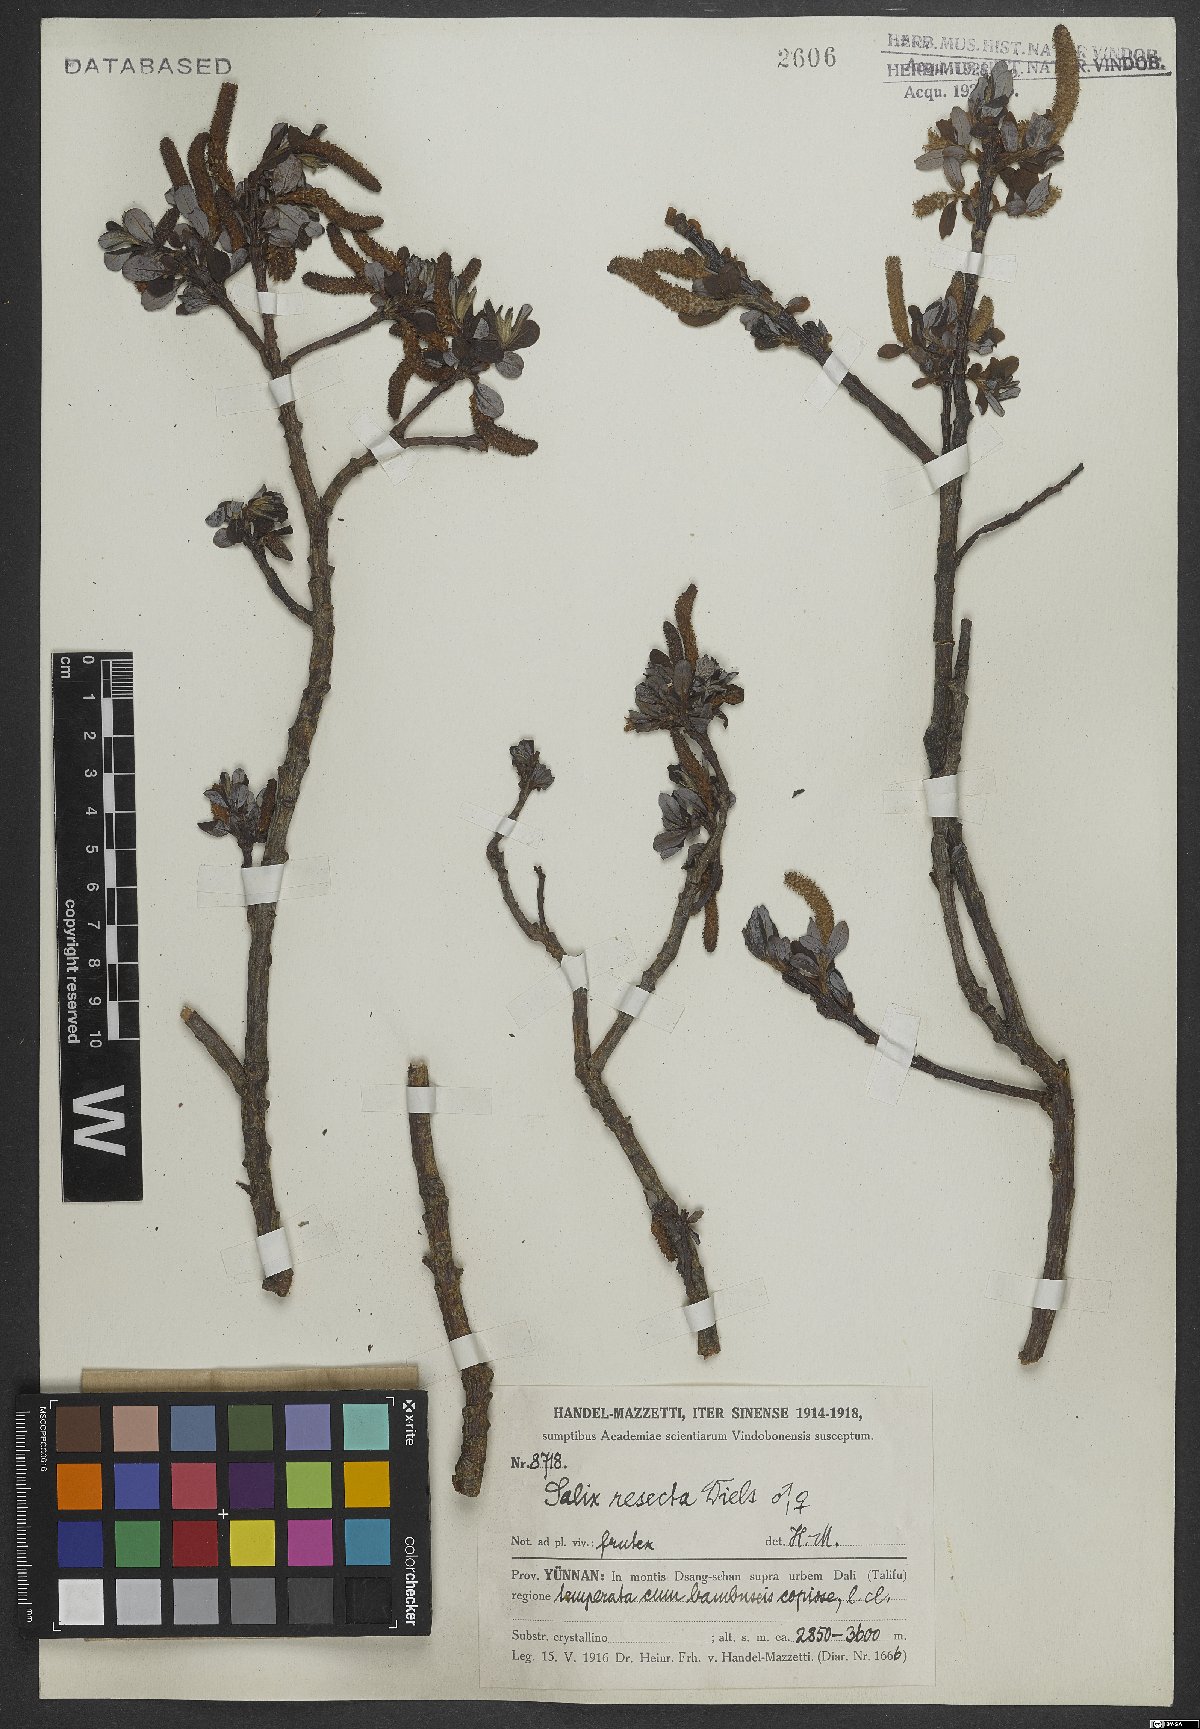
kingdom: Plantae
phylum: Tracheophyta
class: Magnoliopsida
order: Malpighiales
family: Salicaceae
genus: Salix
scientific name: Salix resecta
